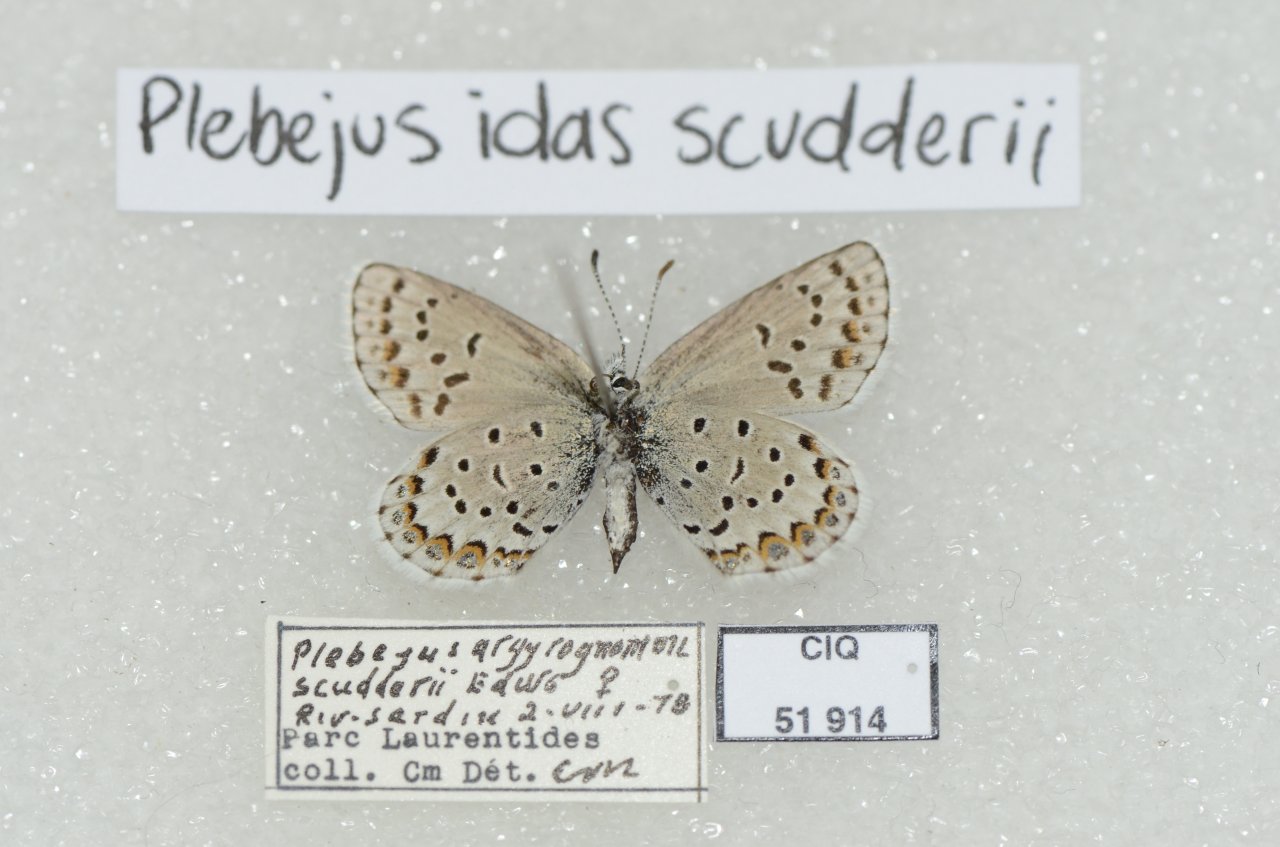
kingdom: Animalia
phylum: Arthropoda
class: Insecta
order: Lepidoptera
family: Lycaenidae
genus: Lycaeides
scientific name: Lycaeides idas
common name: Northern Blue
